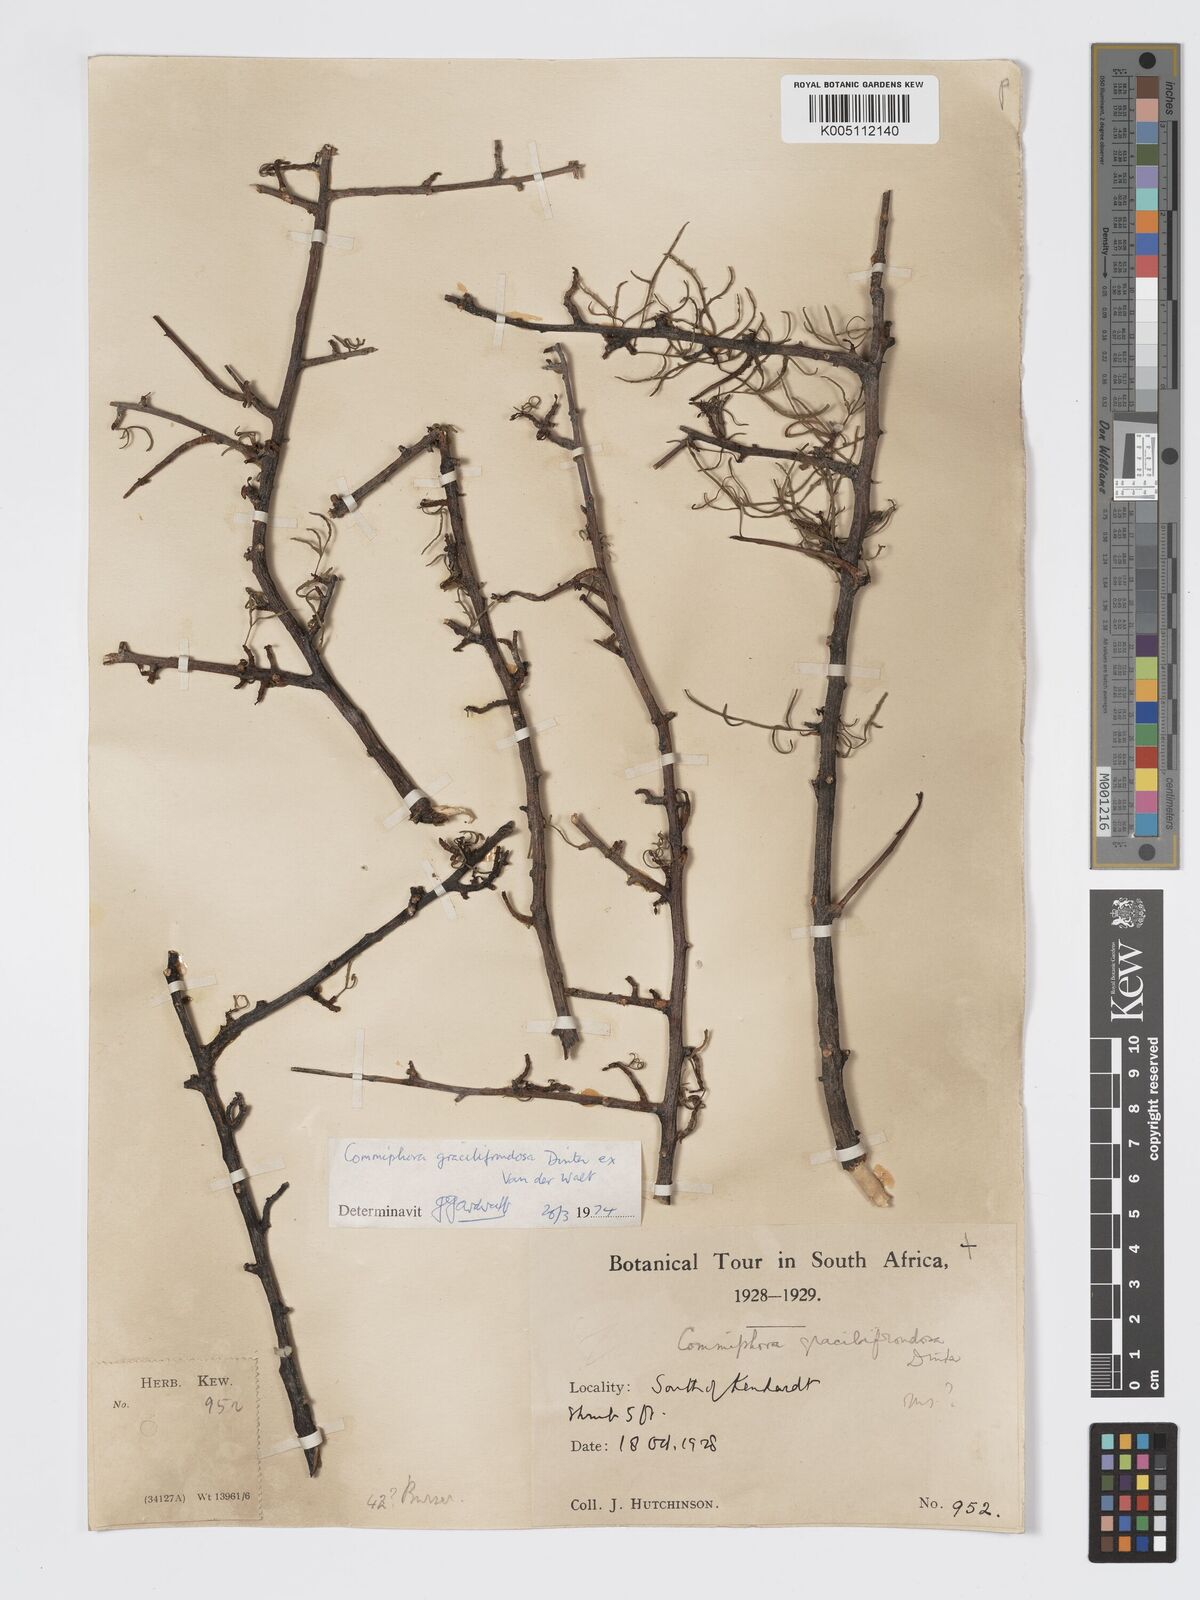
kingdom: Plantae
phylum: Tracheophyta
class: Magnoliopsida
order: Sapindales
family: Burseraceae
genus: Commiphora
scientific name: Commiphora gracilifrondosa
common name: Karee-leaved commiphora
